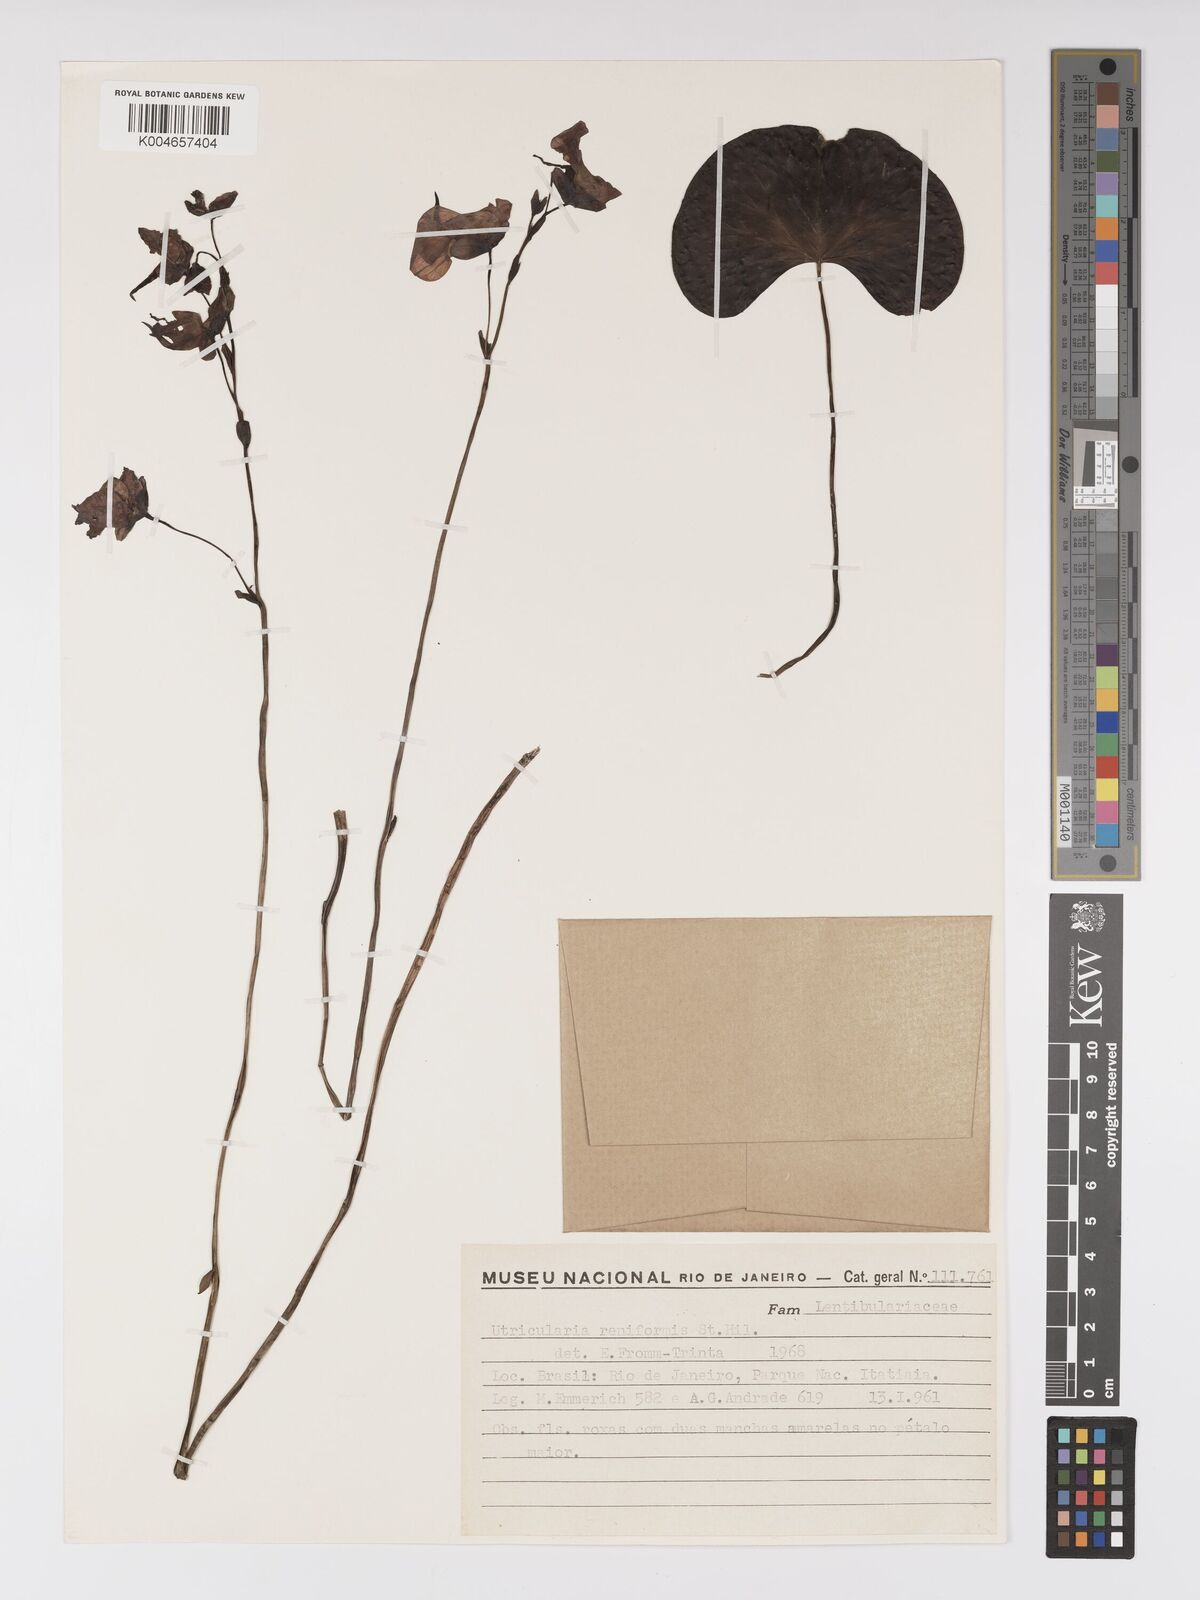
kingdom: Plantae
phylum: Tracheophyta
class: Magnoliopsida
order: Lamiales
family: Lentibulariaceae
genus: Utricularia
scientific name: Utricularia reniformis
